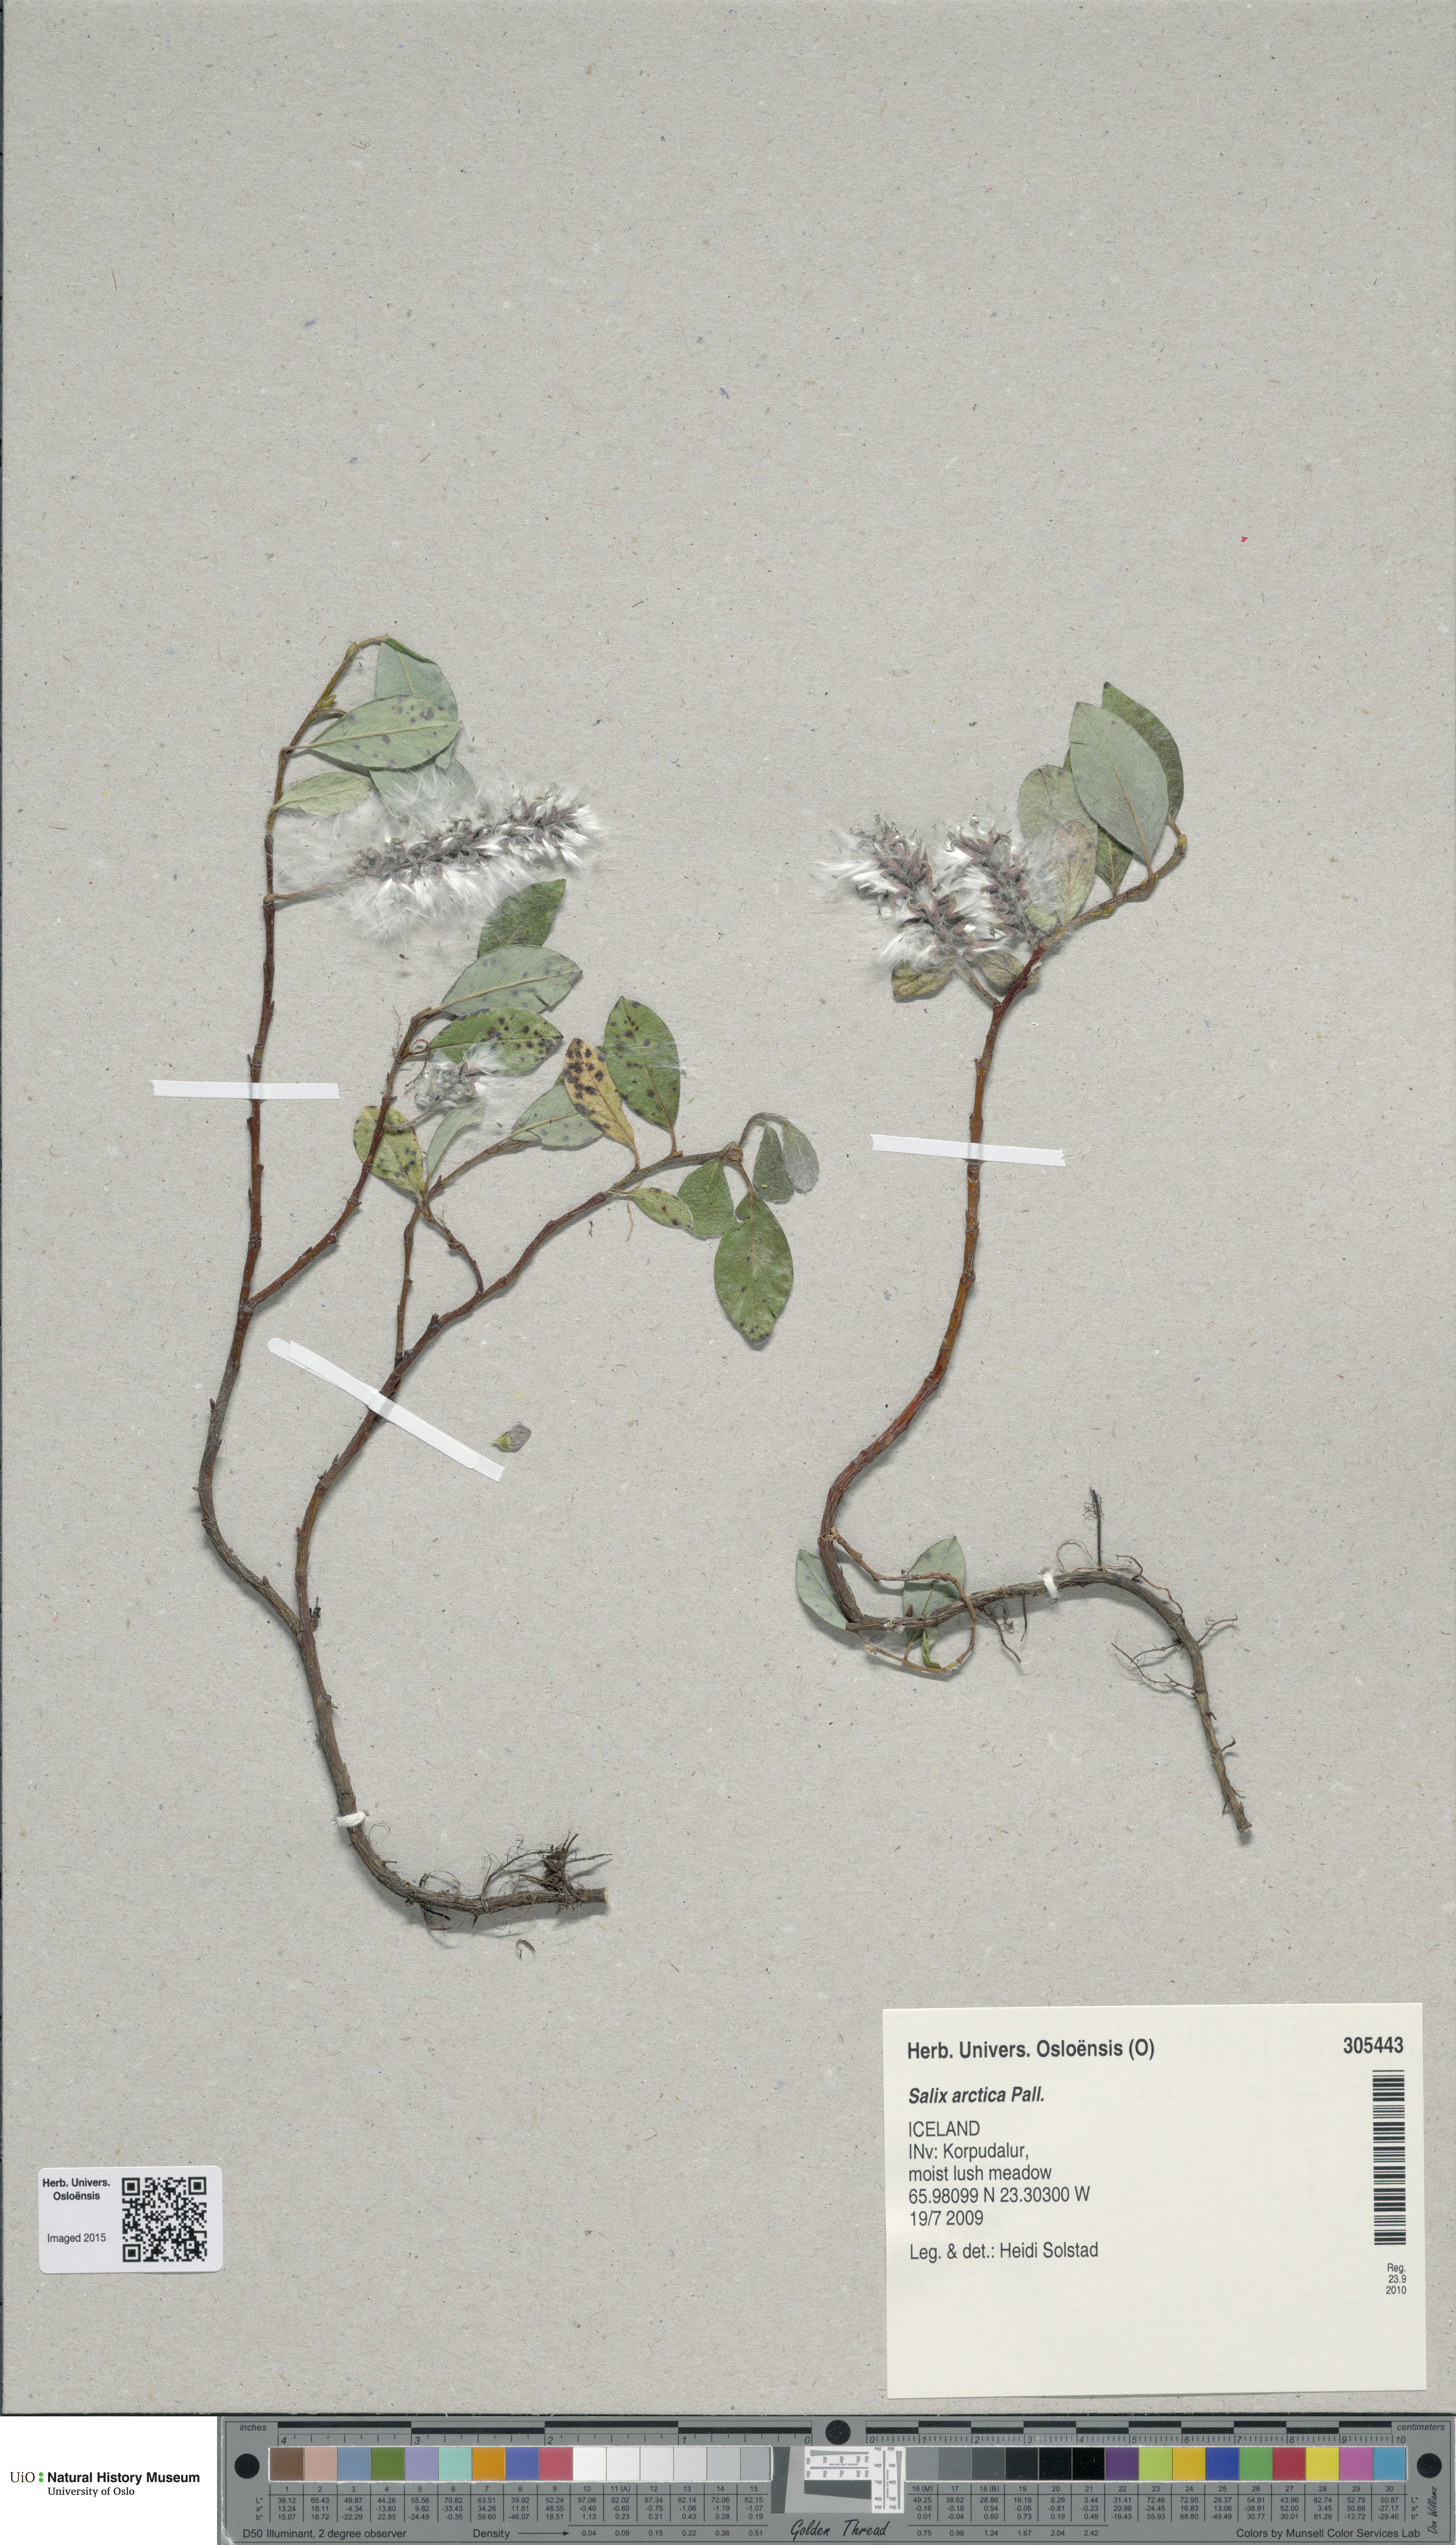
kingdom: Plantae
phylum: Tracheophyta
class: Magnoliopsida
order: Malpighiales
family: Salicaceae
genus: Salix
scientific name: Salix arctica
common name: Arctic willow
